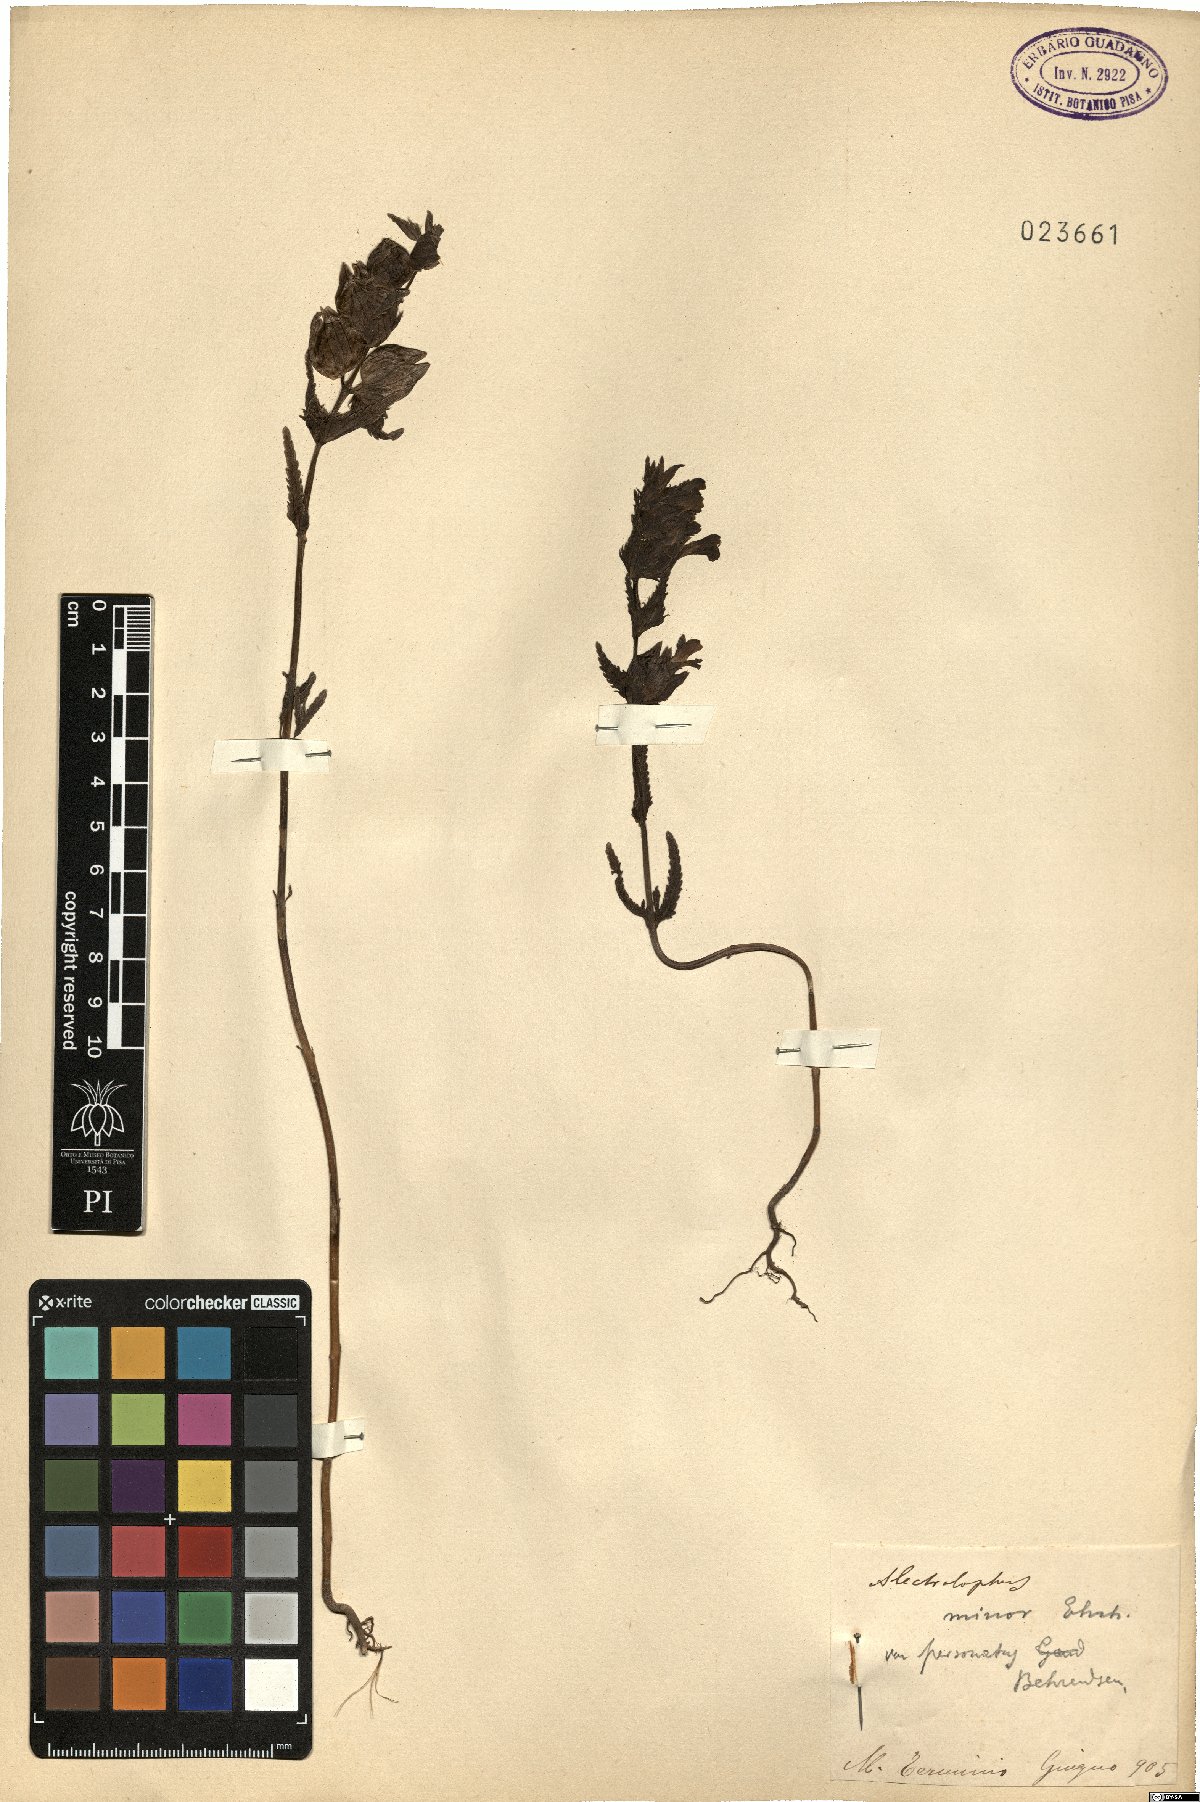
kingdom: Plantae
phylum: Tracheophyta
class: Magnoliopsida
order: Lamiales
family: Orobanchaceae
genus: Rhinanthus
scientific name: Rhinanthus minor
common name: Yellow-rattle
